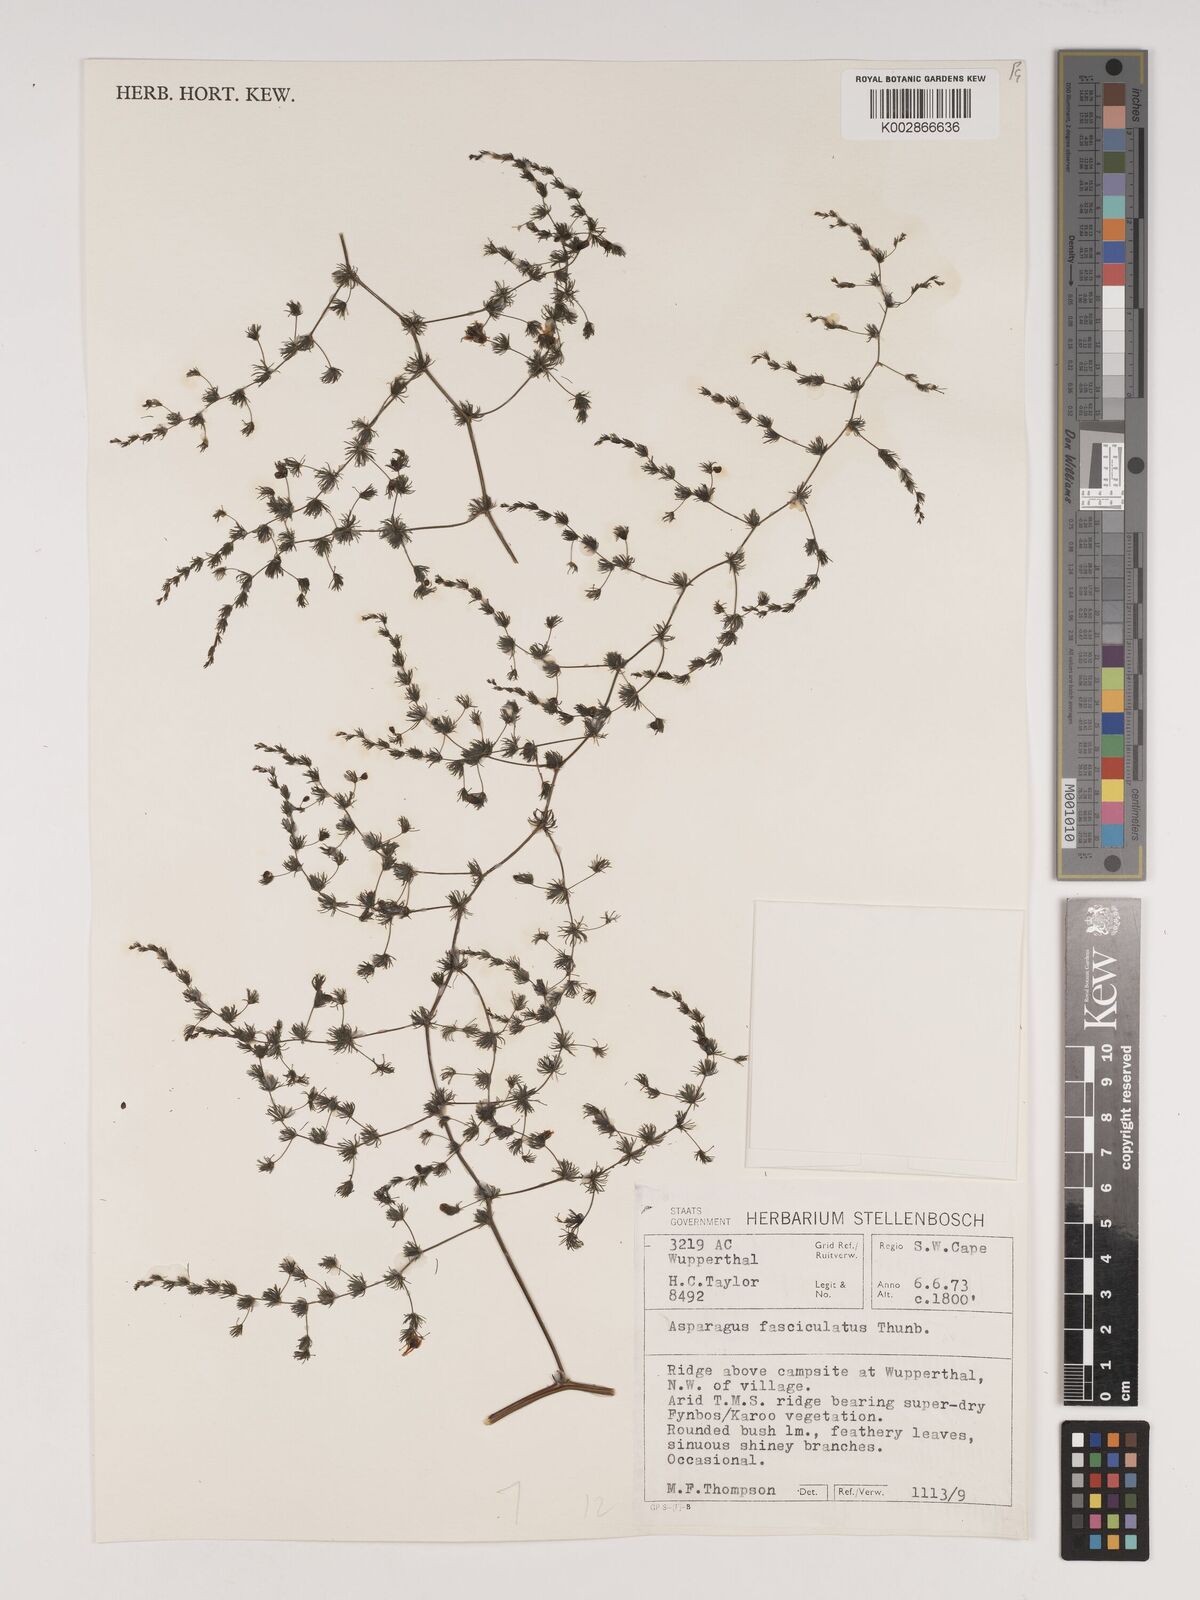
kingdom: Plantae
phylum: Tracheophyta
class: Liliopsida
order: Asparagales
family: Asparagaceae
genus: Asparagus
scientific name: Asparagus fasciculatus
